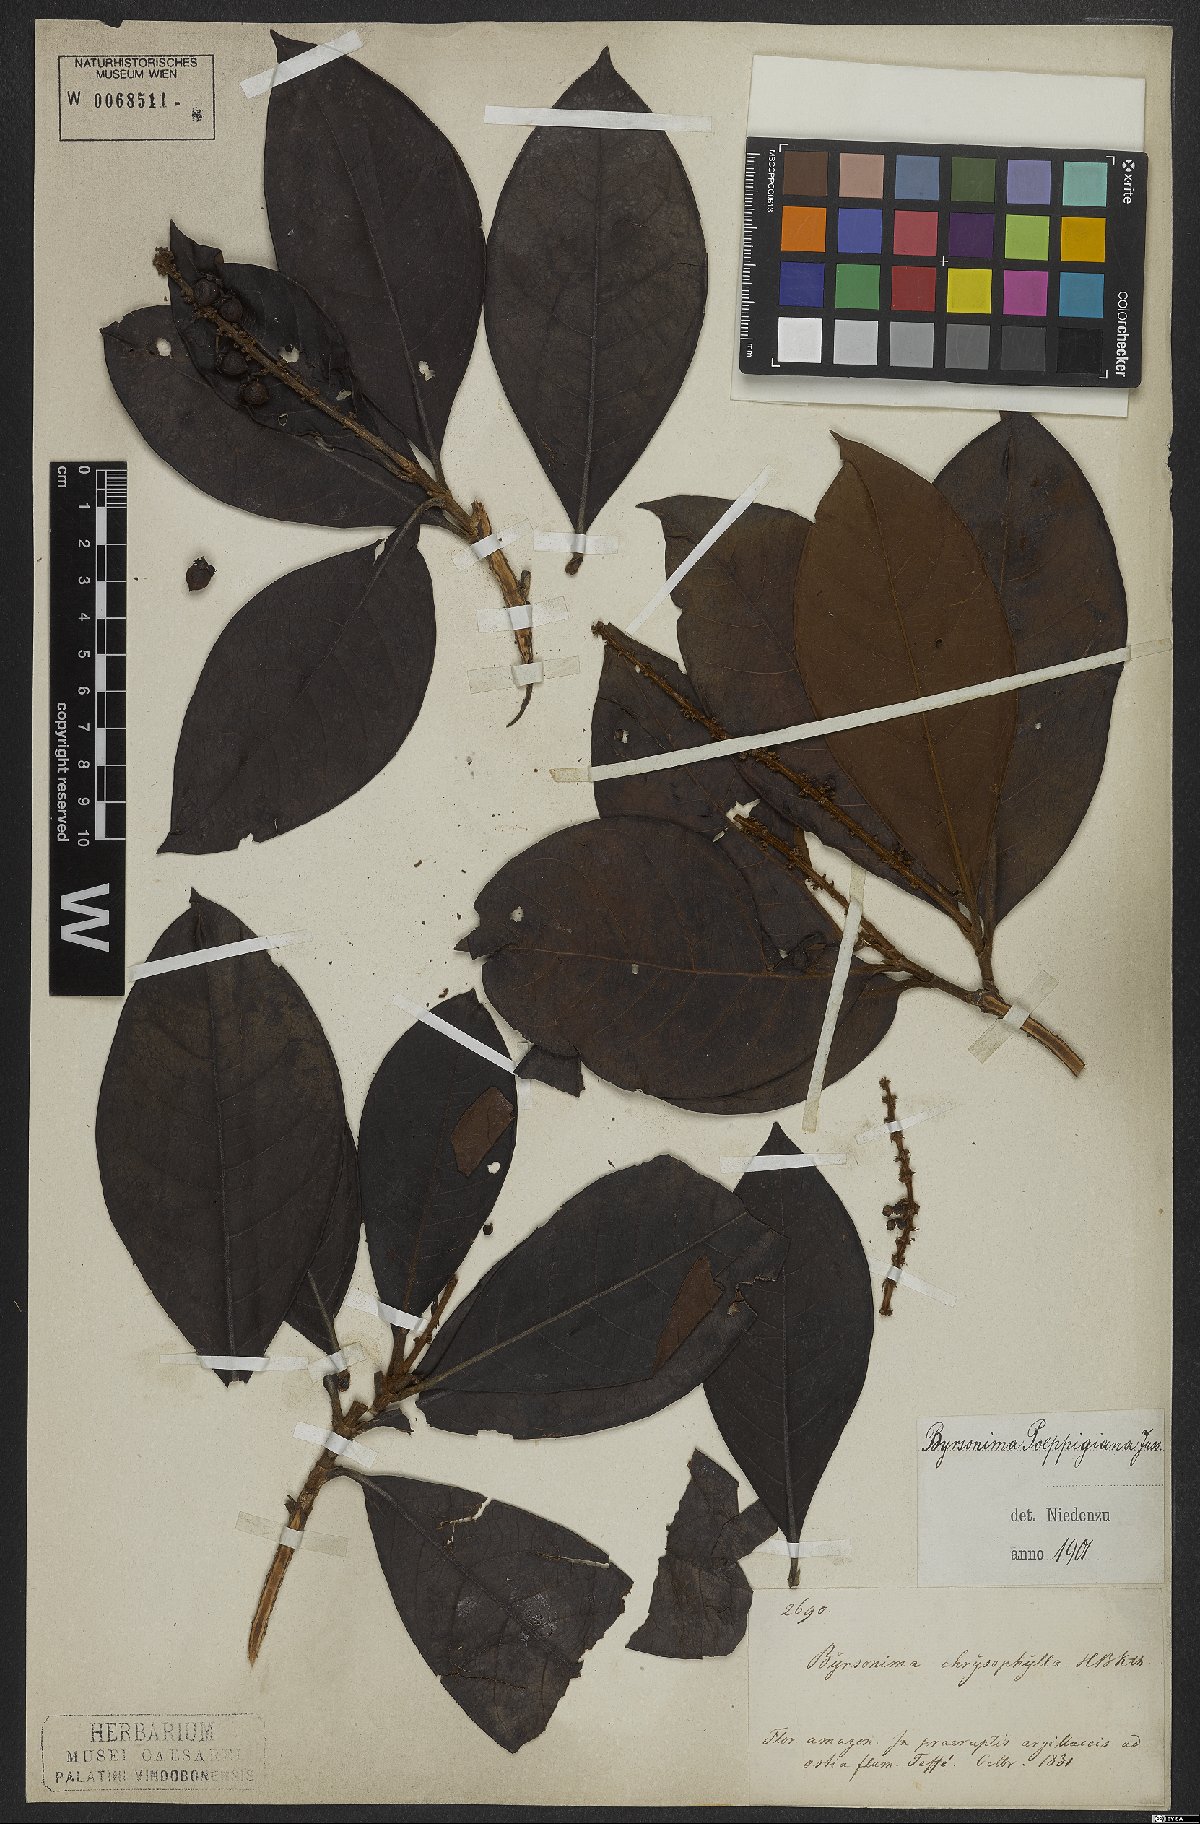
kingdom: Plantae
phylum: Tracheophyta
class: Magnoliopsida
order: Malpighiales
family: Malpighiaceae
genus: Byrsonima
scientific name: Byrsonima poeppigiana
